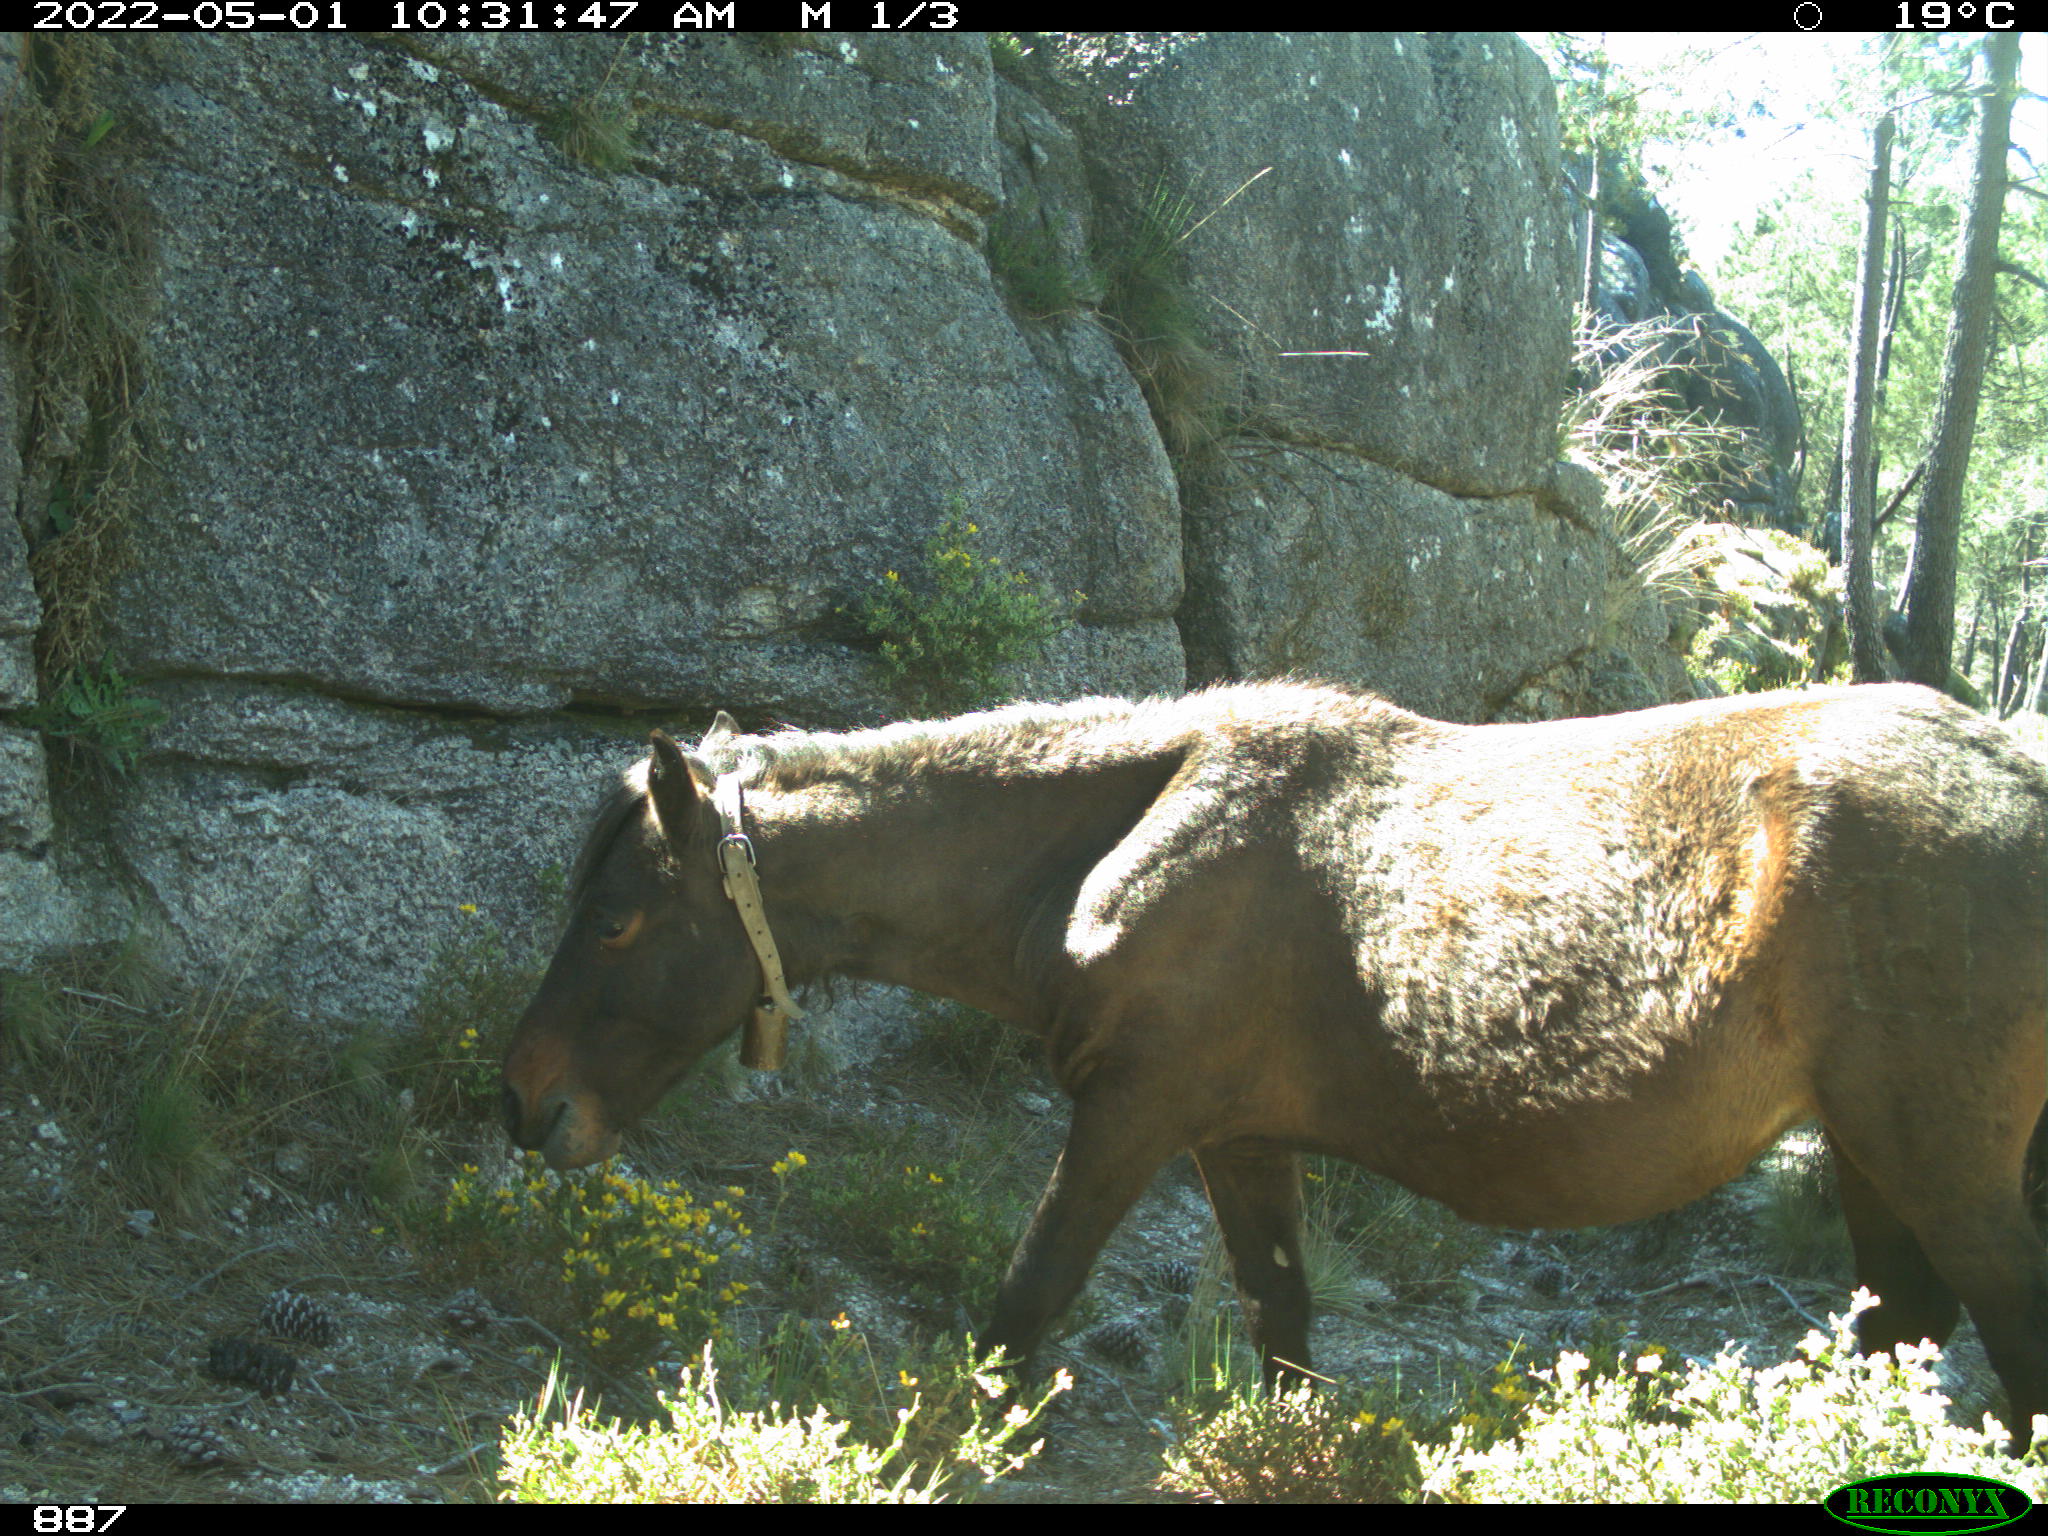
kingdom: Animalia
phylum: Chordata
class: Mammalia
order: Perissodactyla
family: Equidae
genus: Equus
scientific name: Equus caballus
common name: Horse
